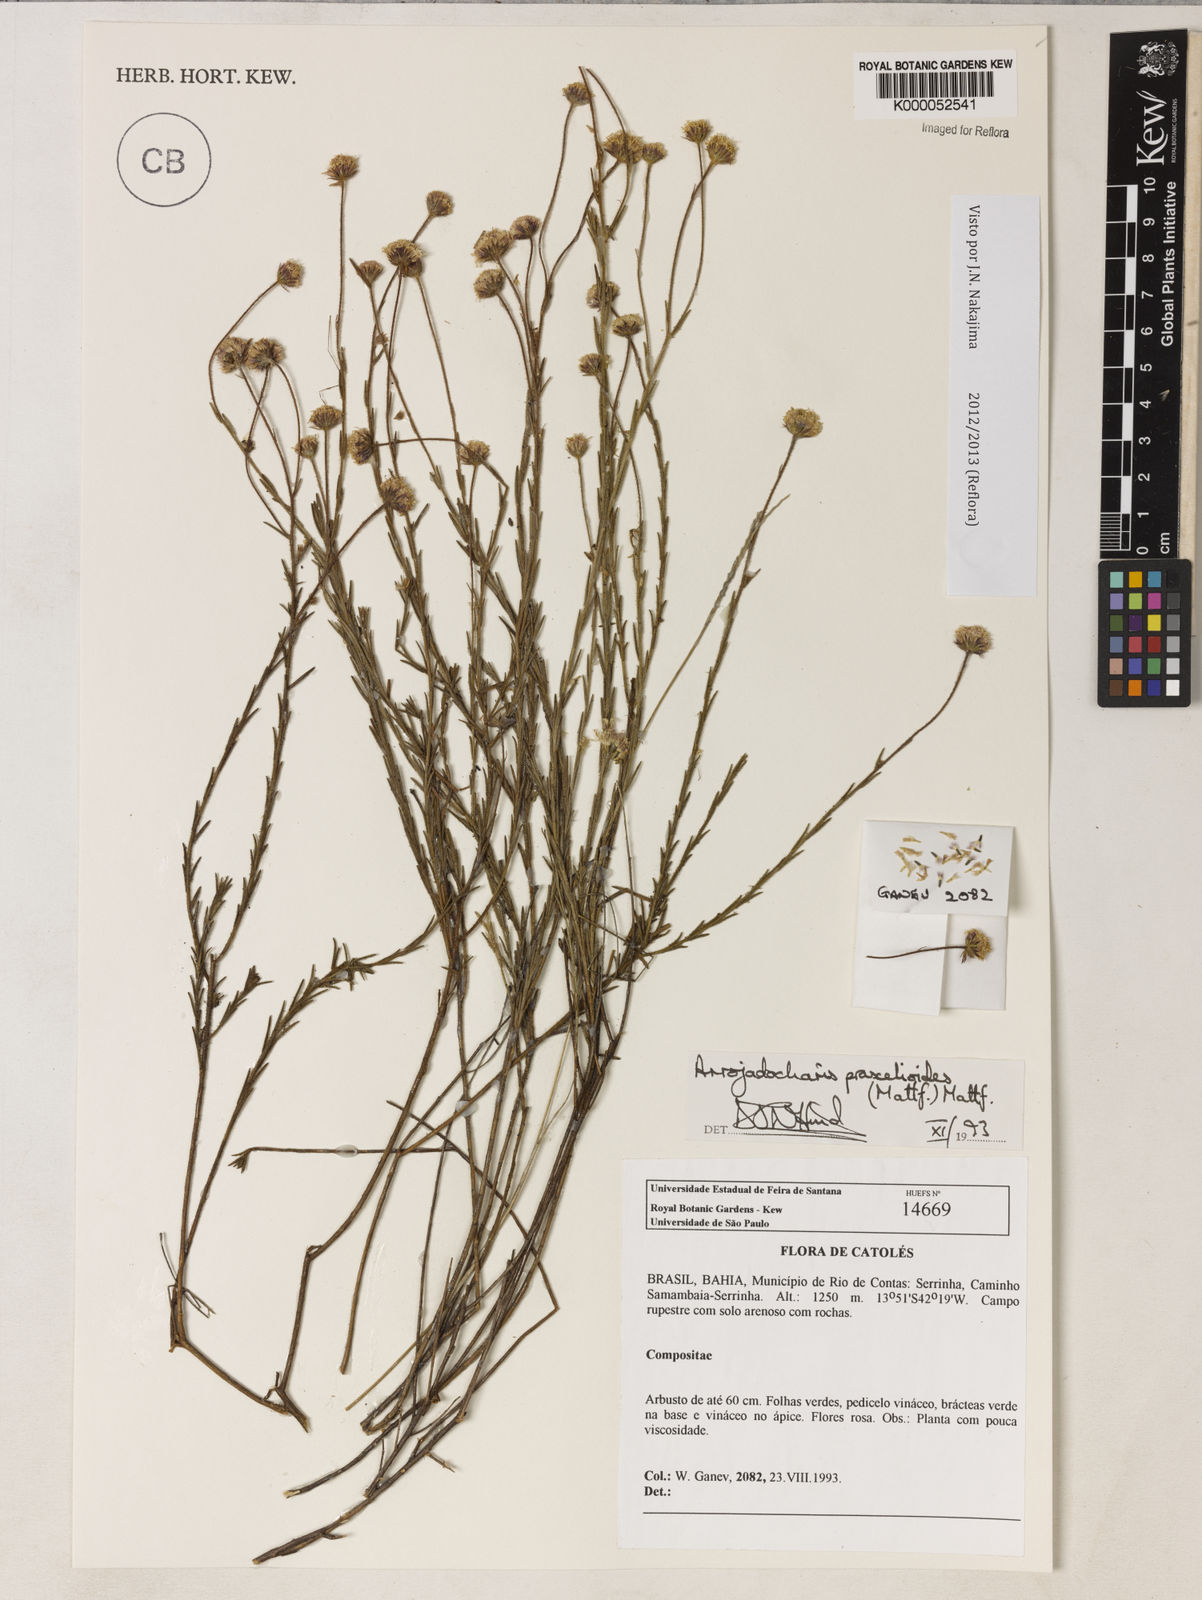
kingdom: Plantae
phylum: Tracheophyta
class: Magnoliopsida
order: Asterales
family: Asteraceae
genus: Arrojadocharis
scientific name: Arrojadocharis praxeloides
